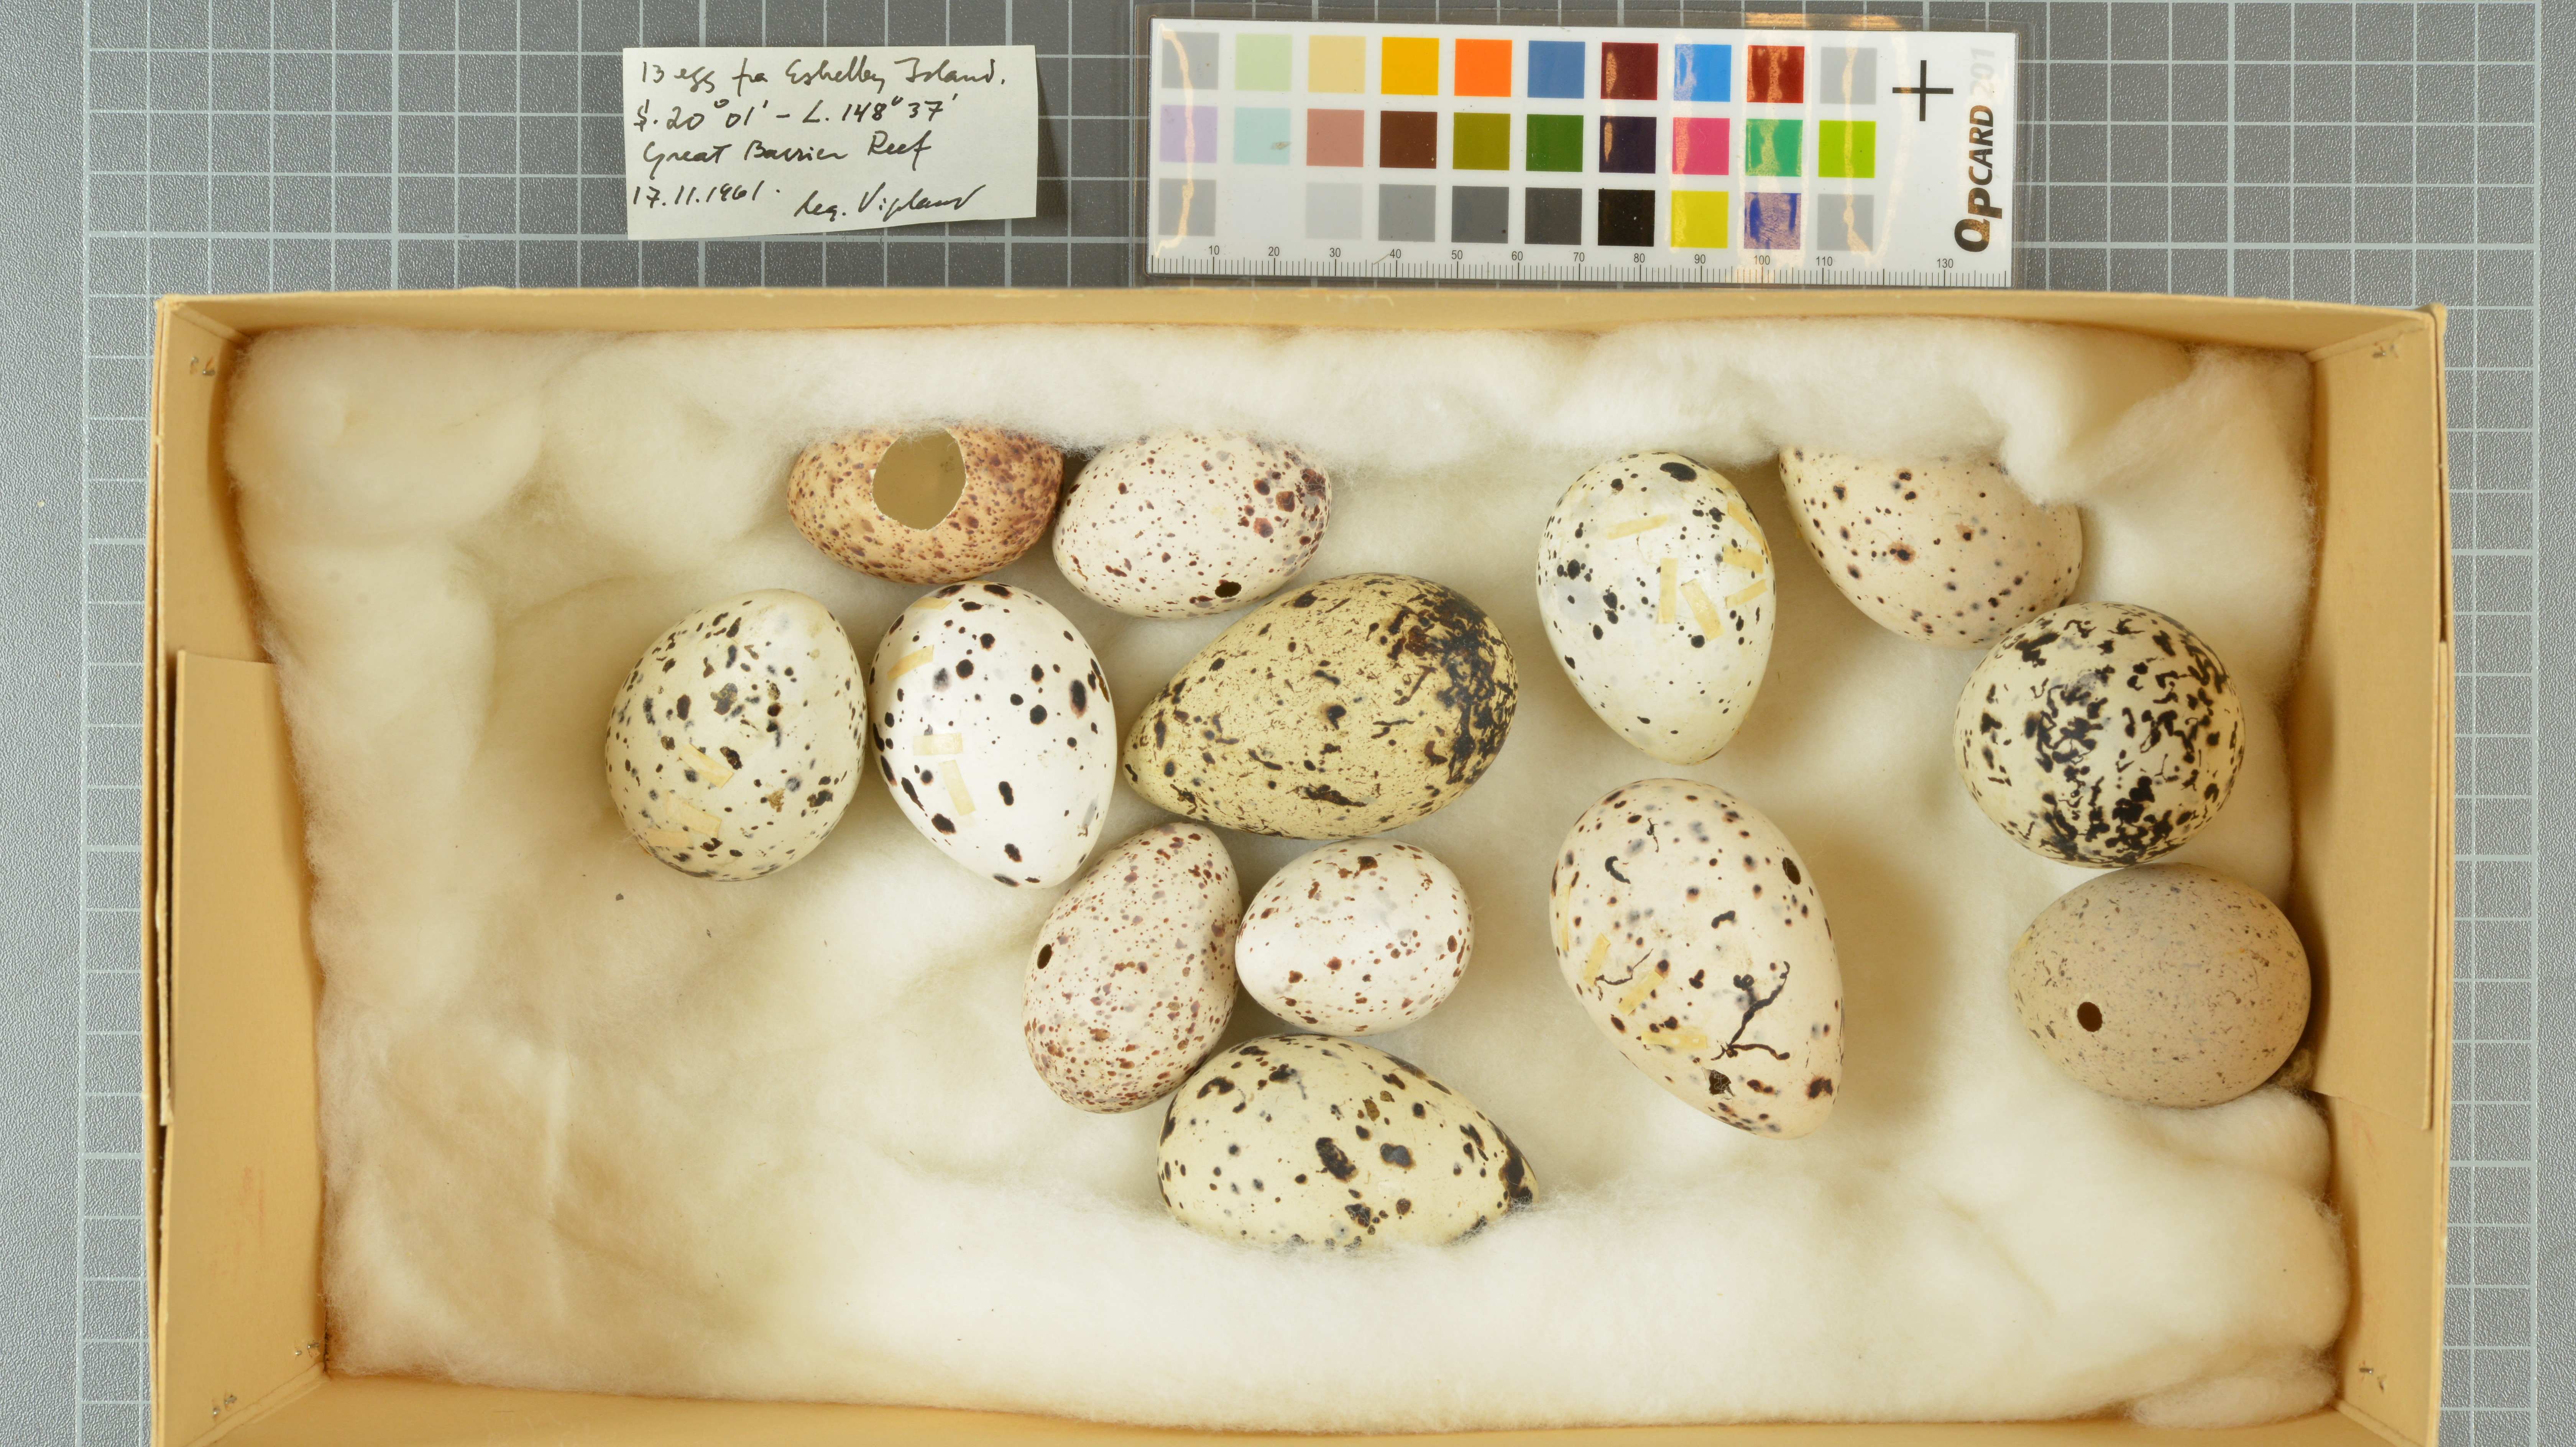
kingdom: Animalia
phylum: Chordata
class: Aves
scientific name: Aves
